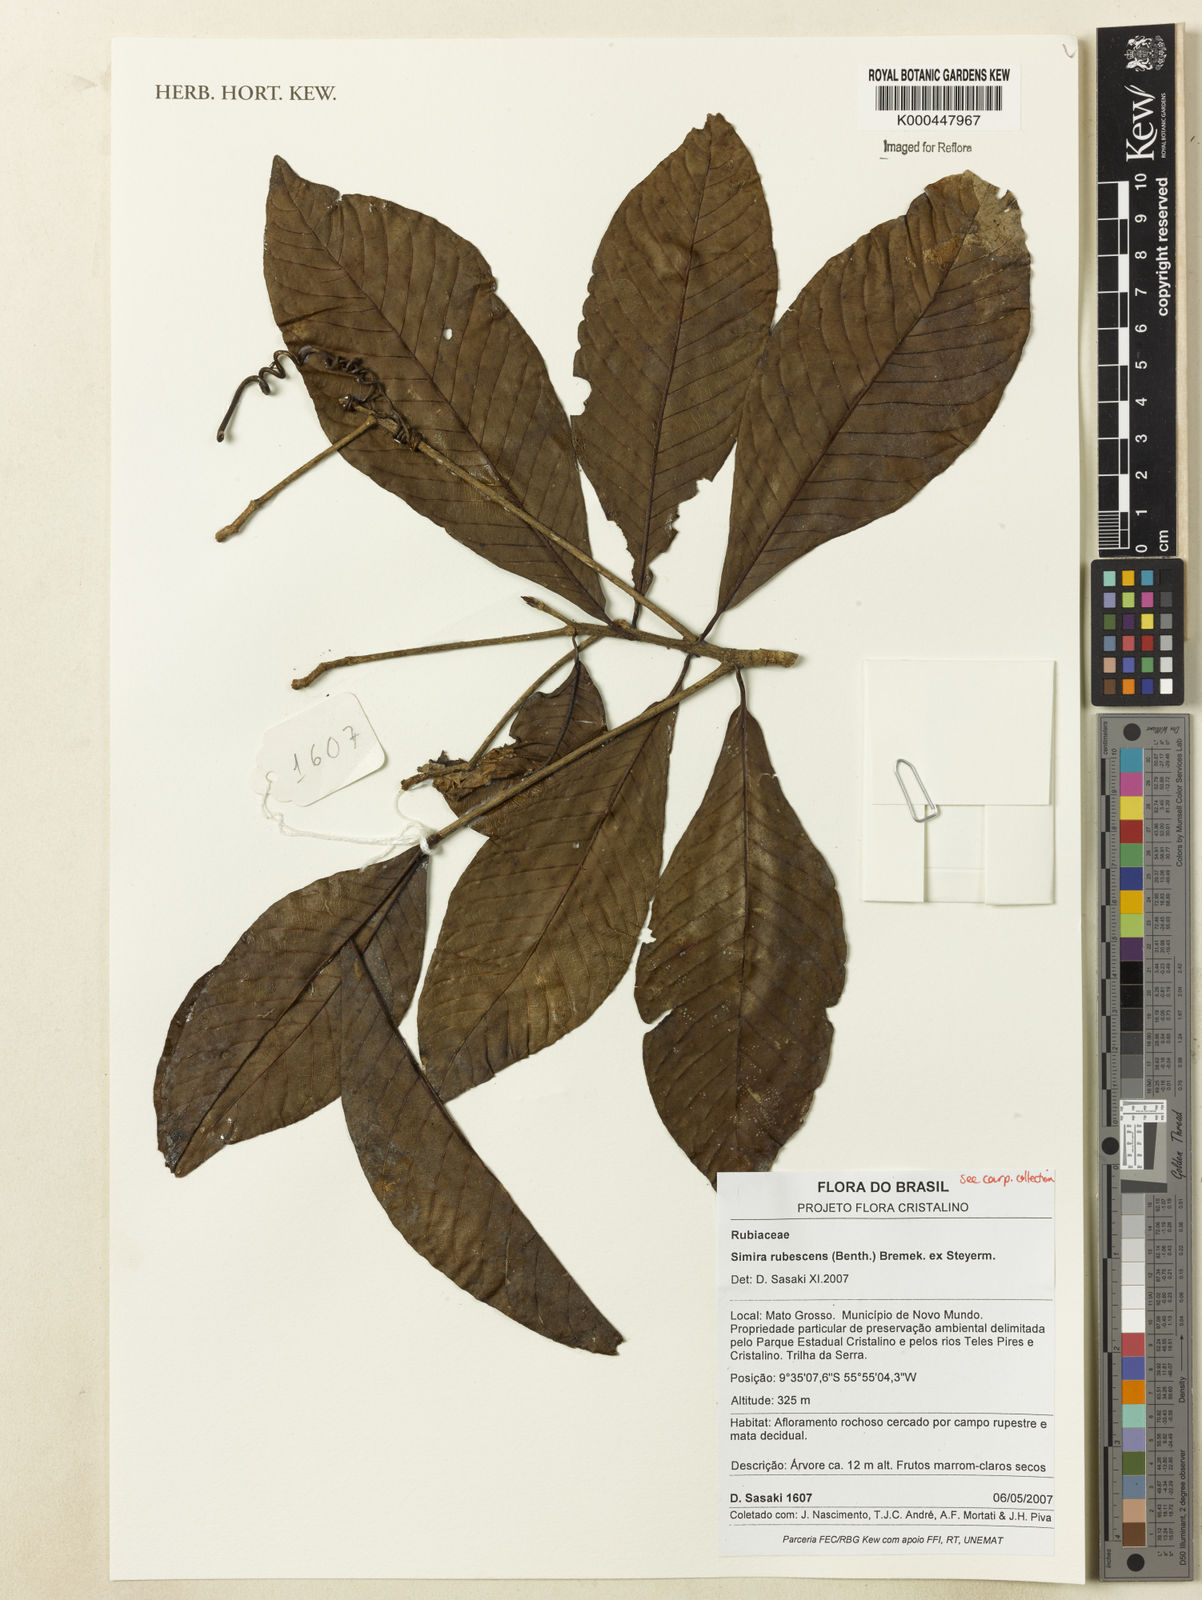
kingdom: Plantae
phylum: Tracheophyta
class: Magnoliopsida
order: Gentianales
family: Rubiaceae
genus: Simira
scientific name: Simira rubescens
